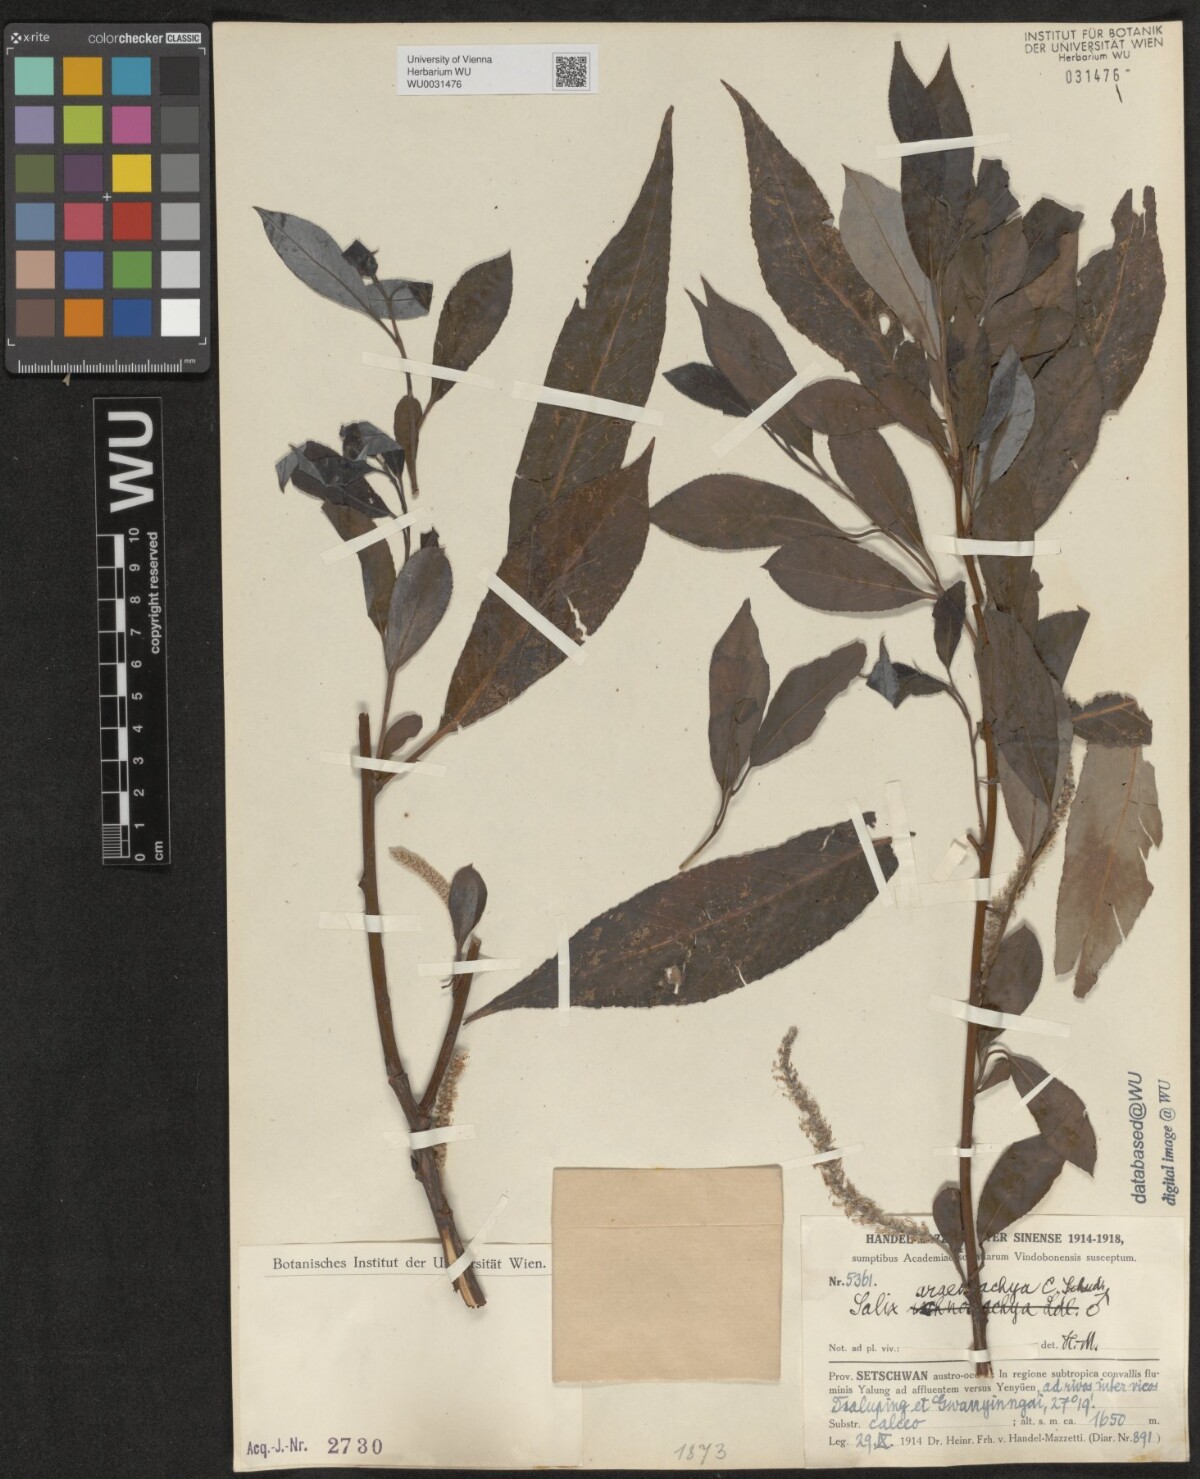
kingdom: Plantae
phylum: Tracheophyta
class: Magnoliopsida
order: Malpighiales
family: Salicaceae
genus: Salix
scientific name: Salix tetrasperma
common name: Indian willow
